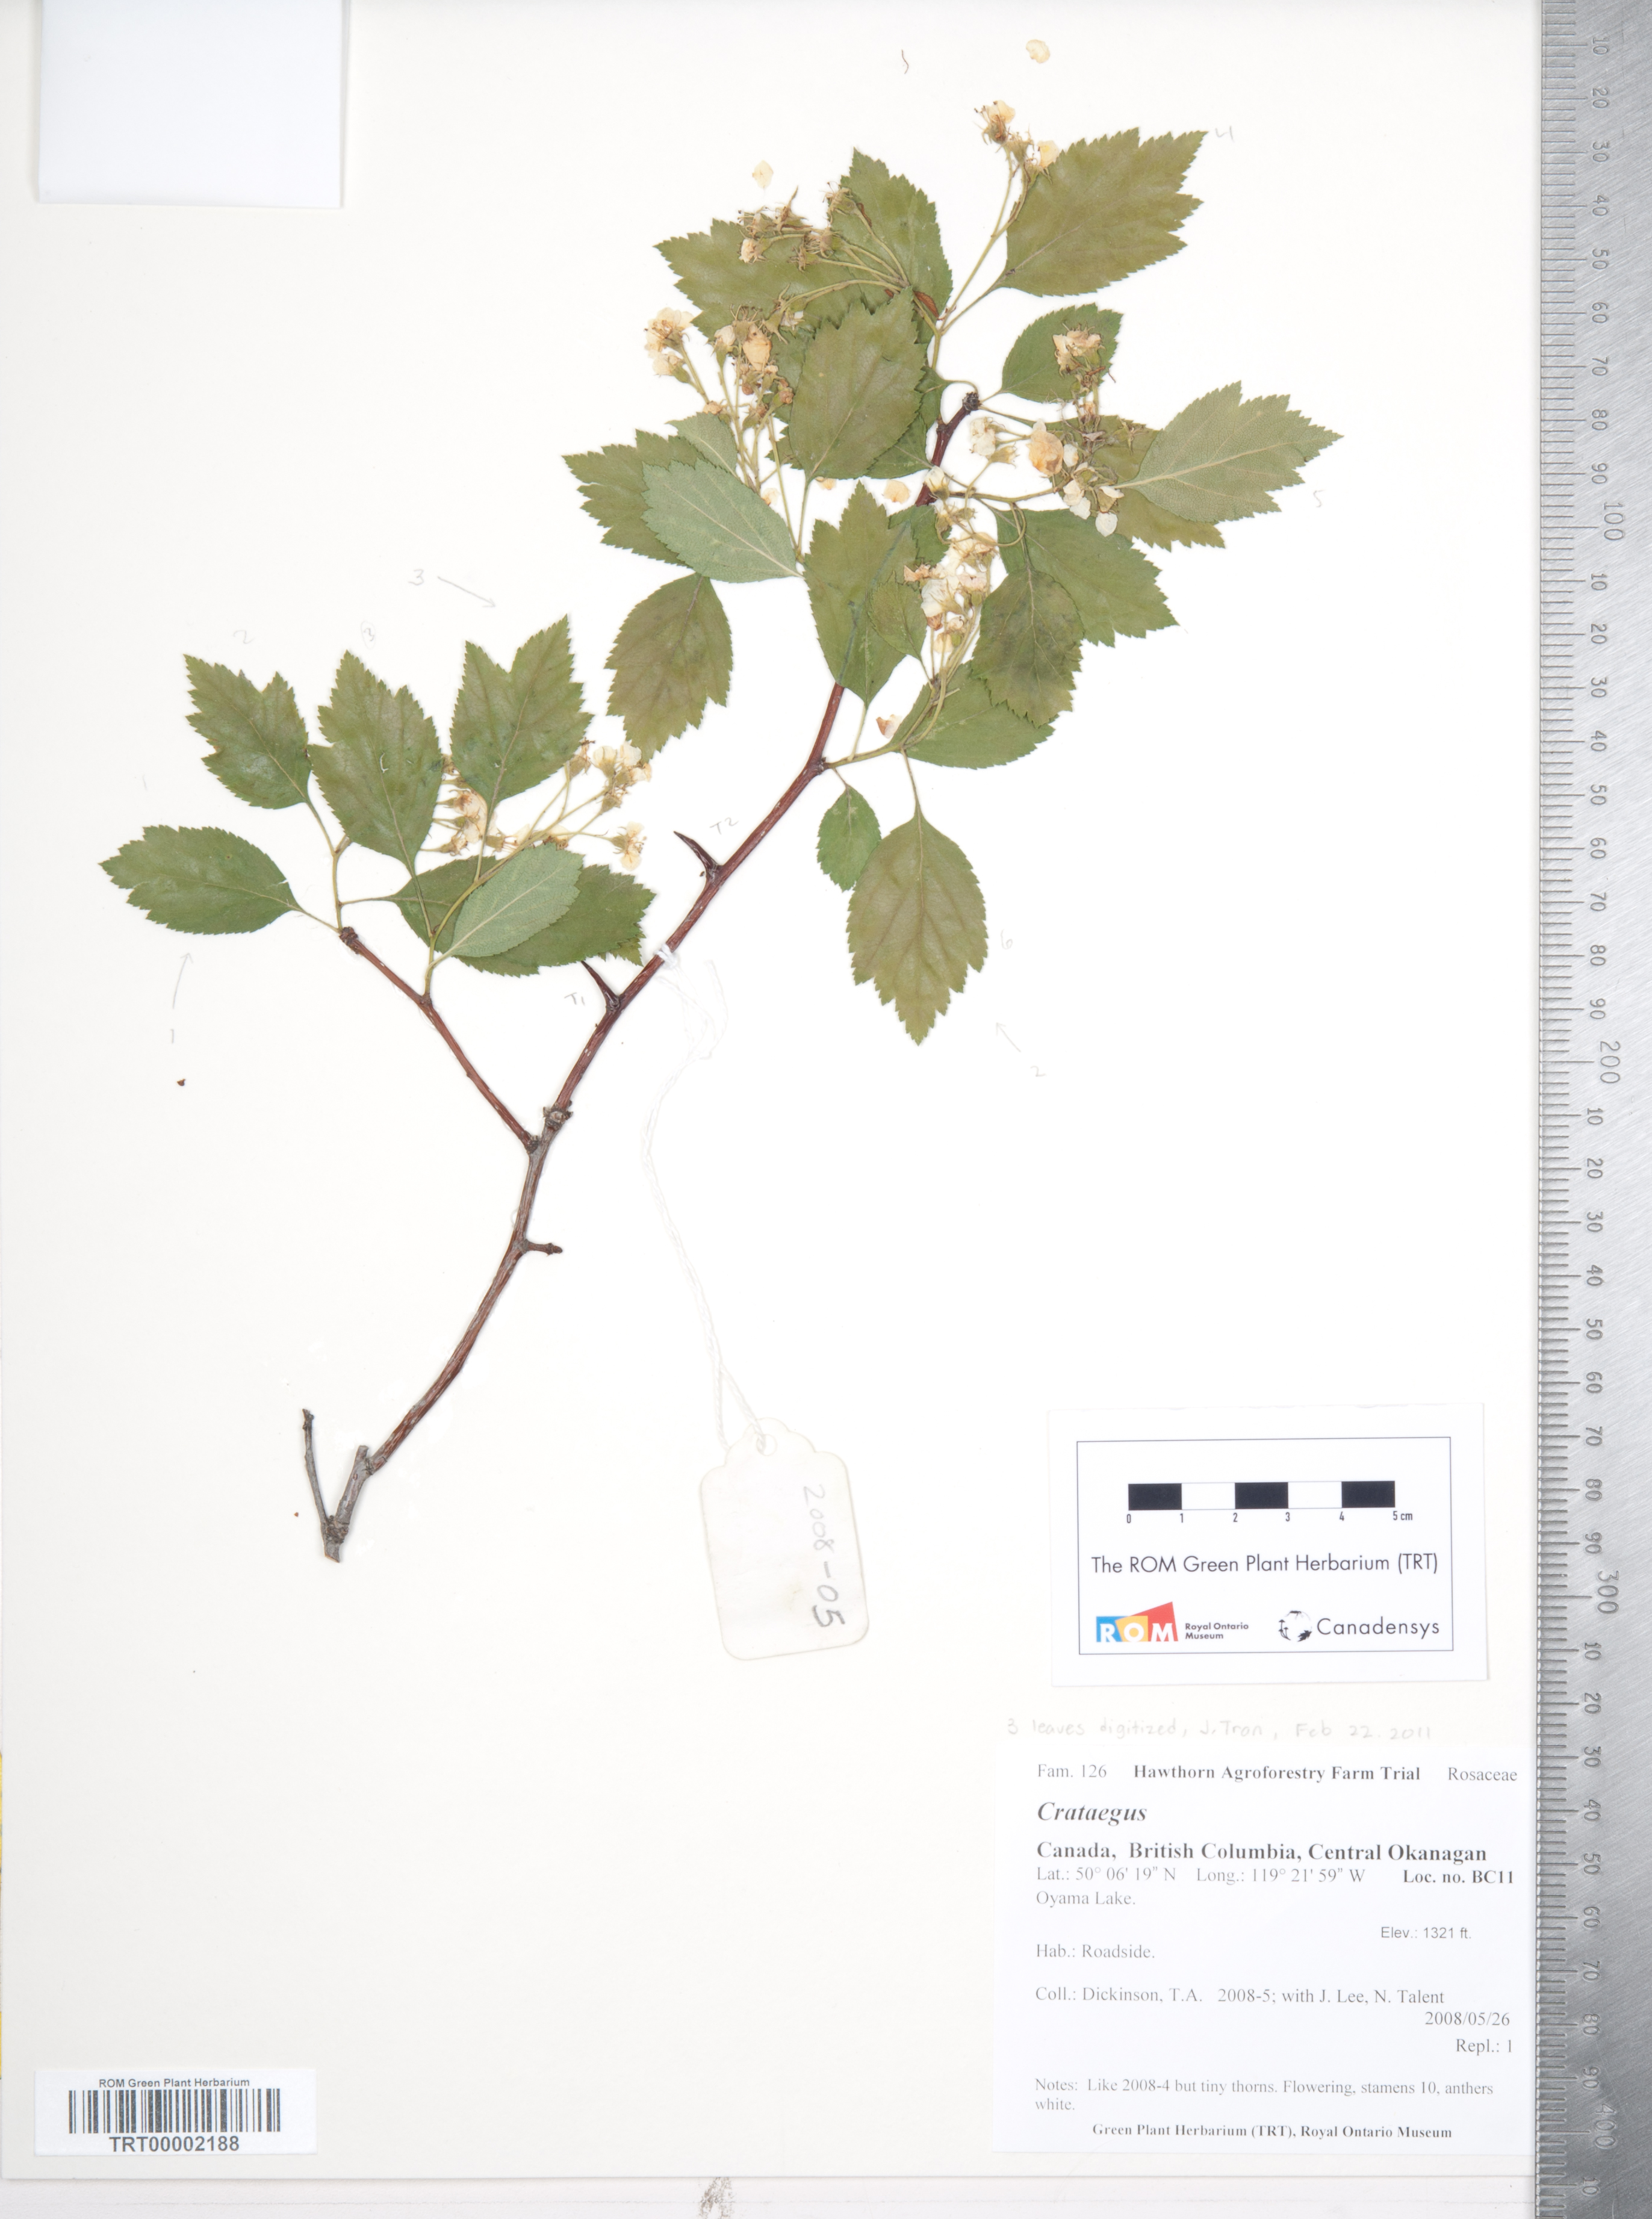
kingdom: Plantae
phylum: Tracheophyta
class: Magnoliopsida
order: Rosales
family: Rosaceae
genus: Crataegus
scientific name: Crataegus okanaganensis
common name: Okanagan valley hawthorn
